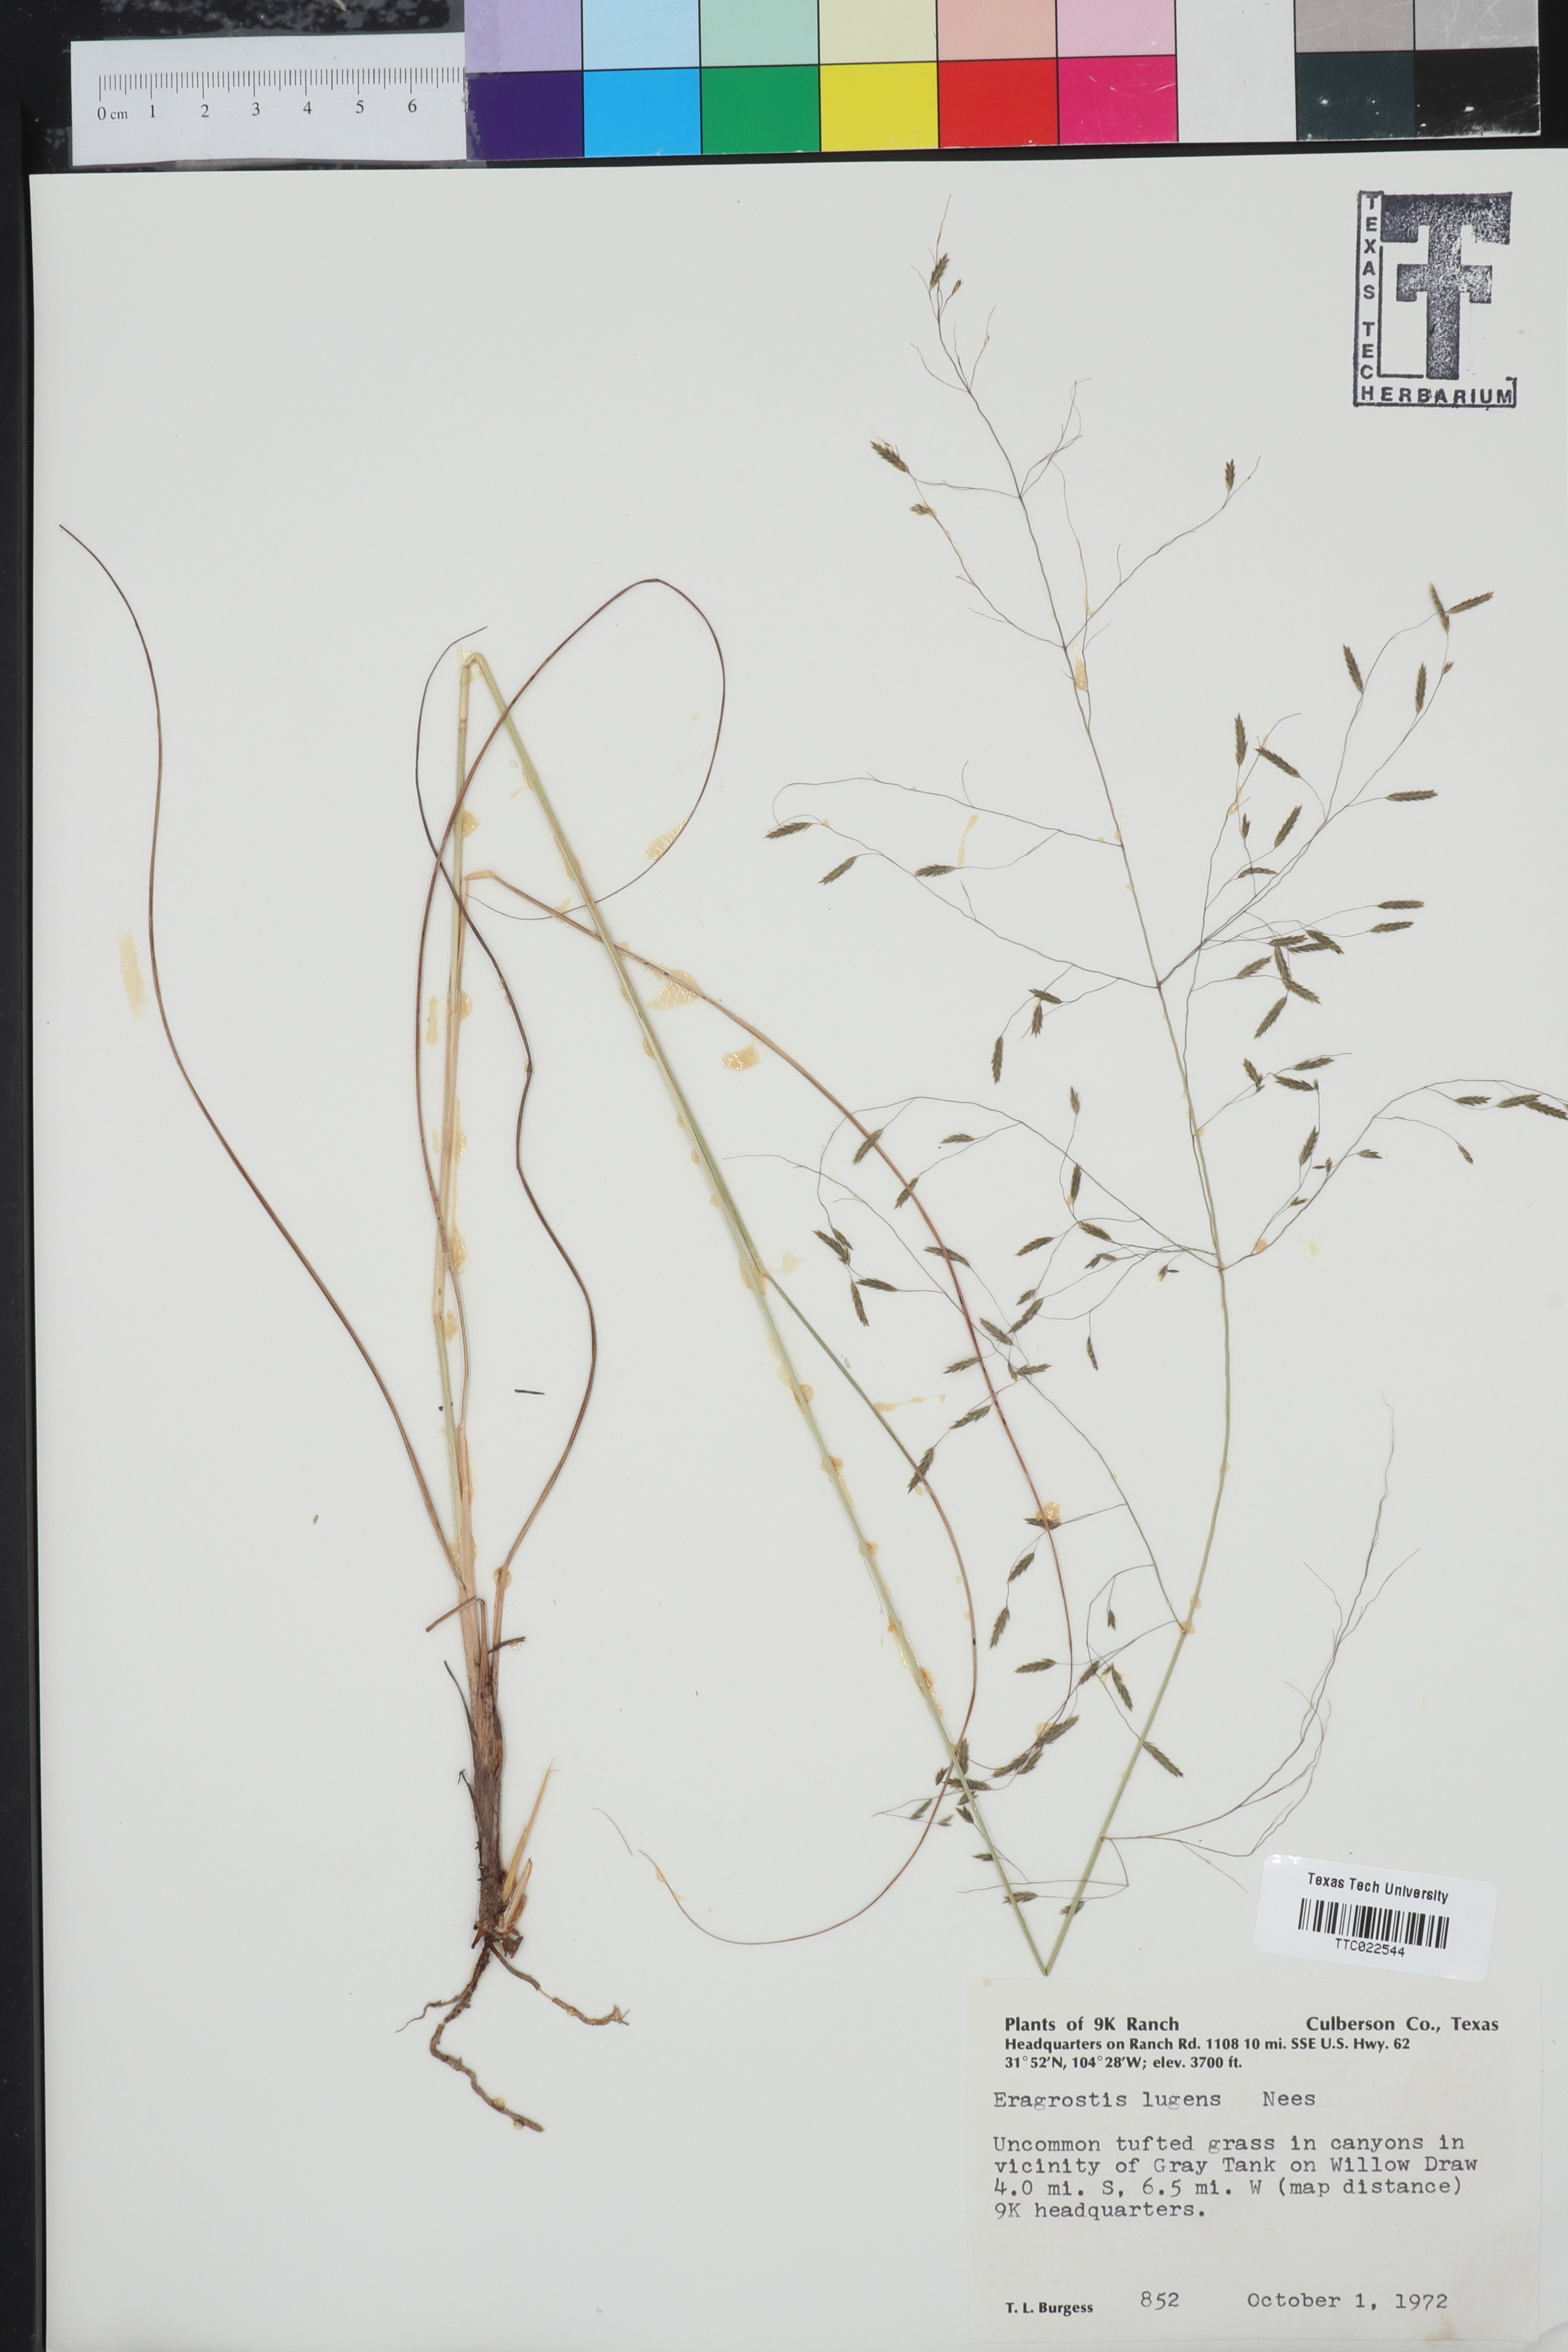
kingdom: Plantae
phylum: Tracheophyta
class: Liliopsida
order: Poales
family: Poaceae
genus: Eragrostis
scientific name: Eragrostis capillaris
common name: Hair-like lovegrass
